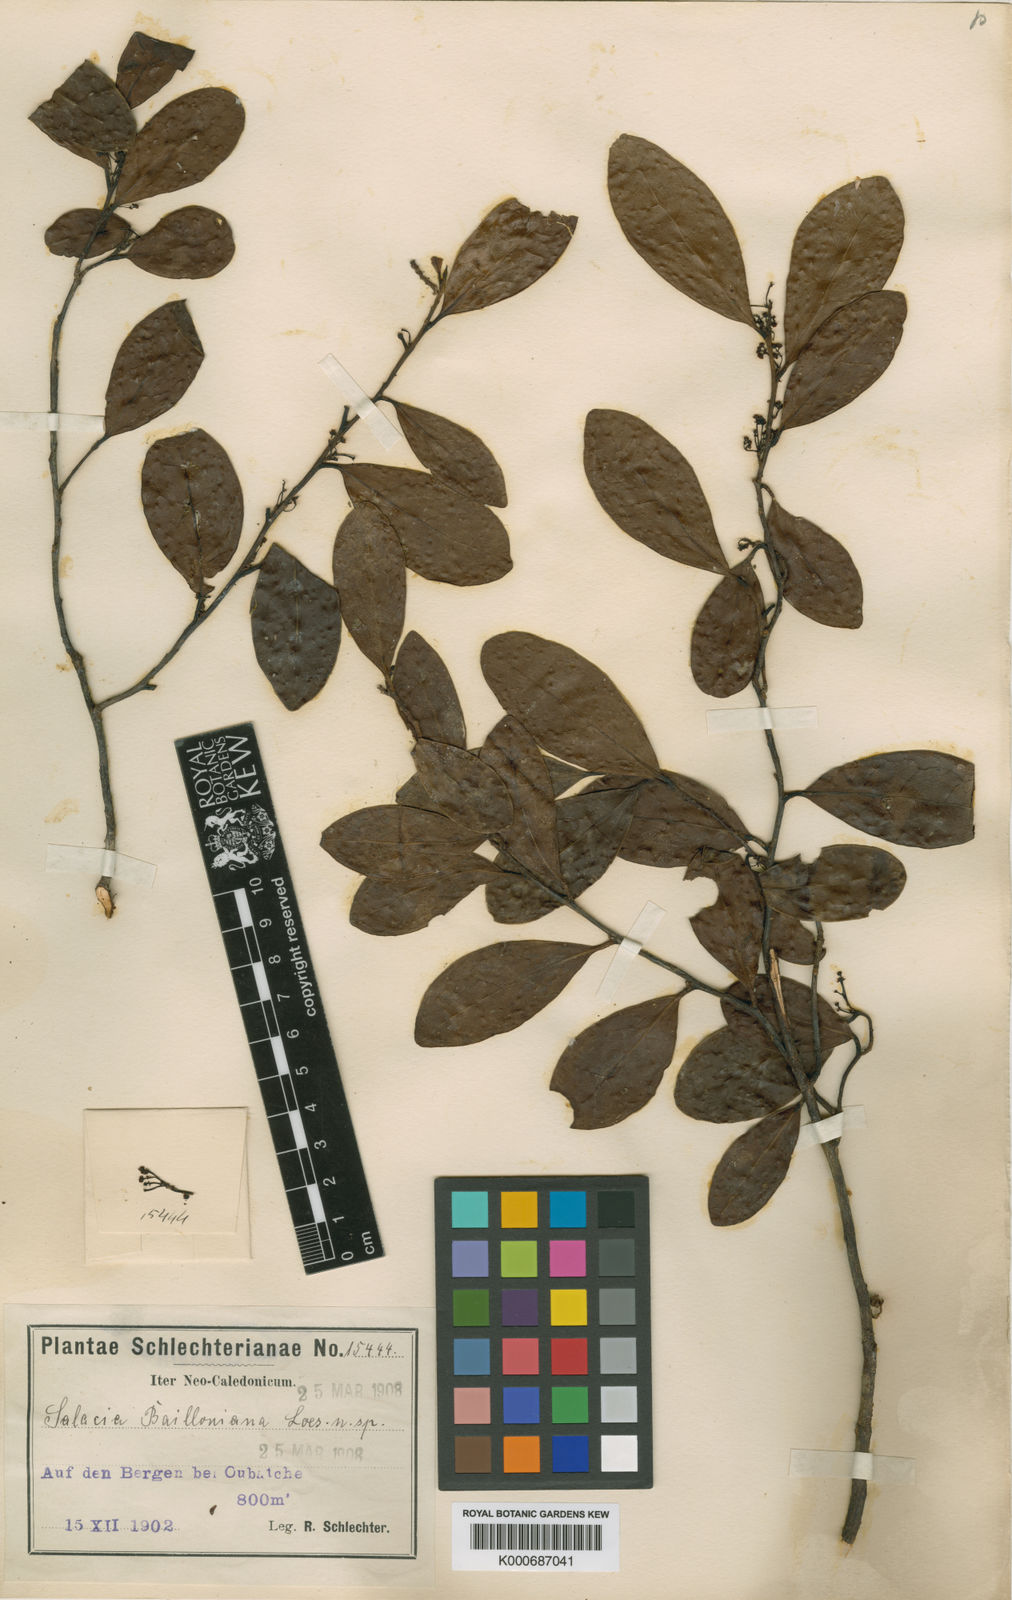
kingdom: Plantae
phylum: Tracheophyta
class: Magnoliopsida
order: Celastrales
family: Celastraceae
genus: Dicarpellum
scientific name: Dicarpellum baillonianum
